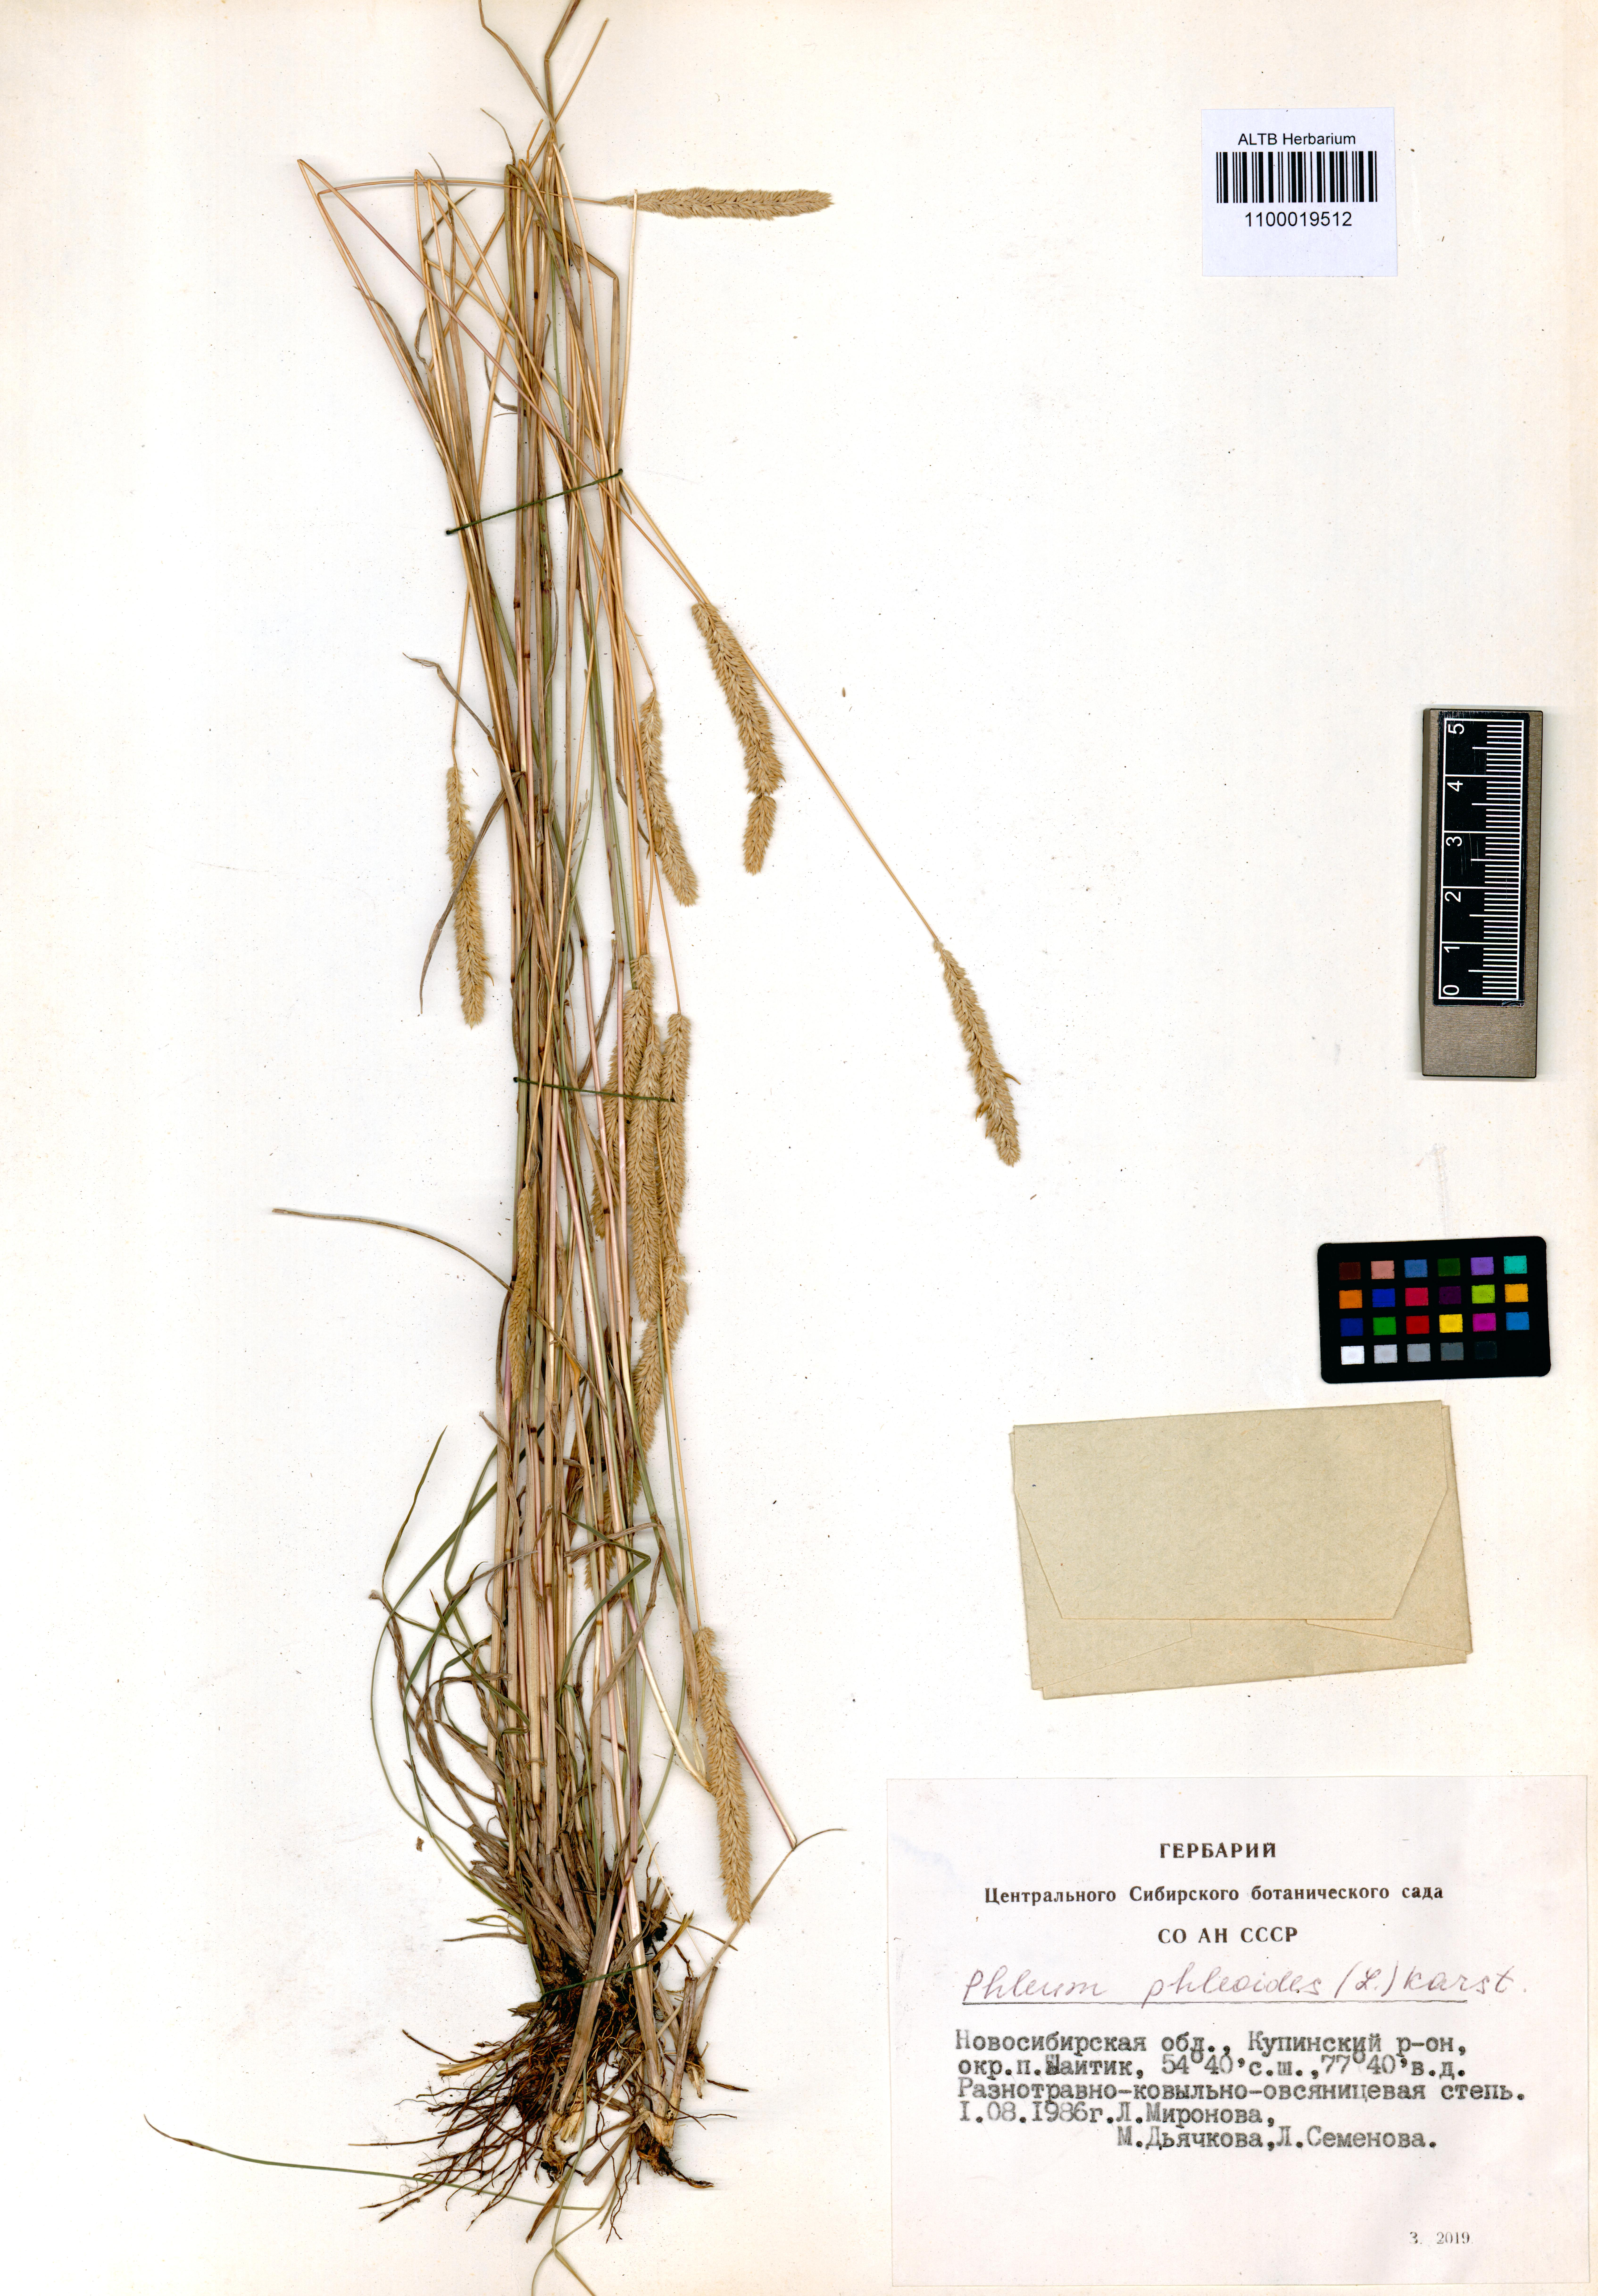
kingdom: Plantae
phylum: Tracheophyta
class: Liliopsida
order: Poales
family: Poaceae
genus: Phleum
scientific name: Phleum phleoides
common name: Purple-stem cat's-tail
